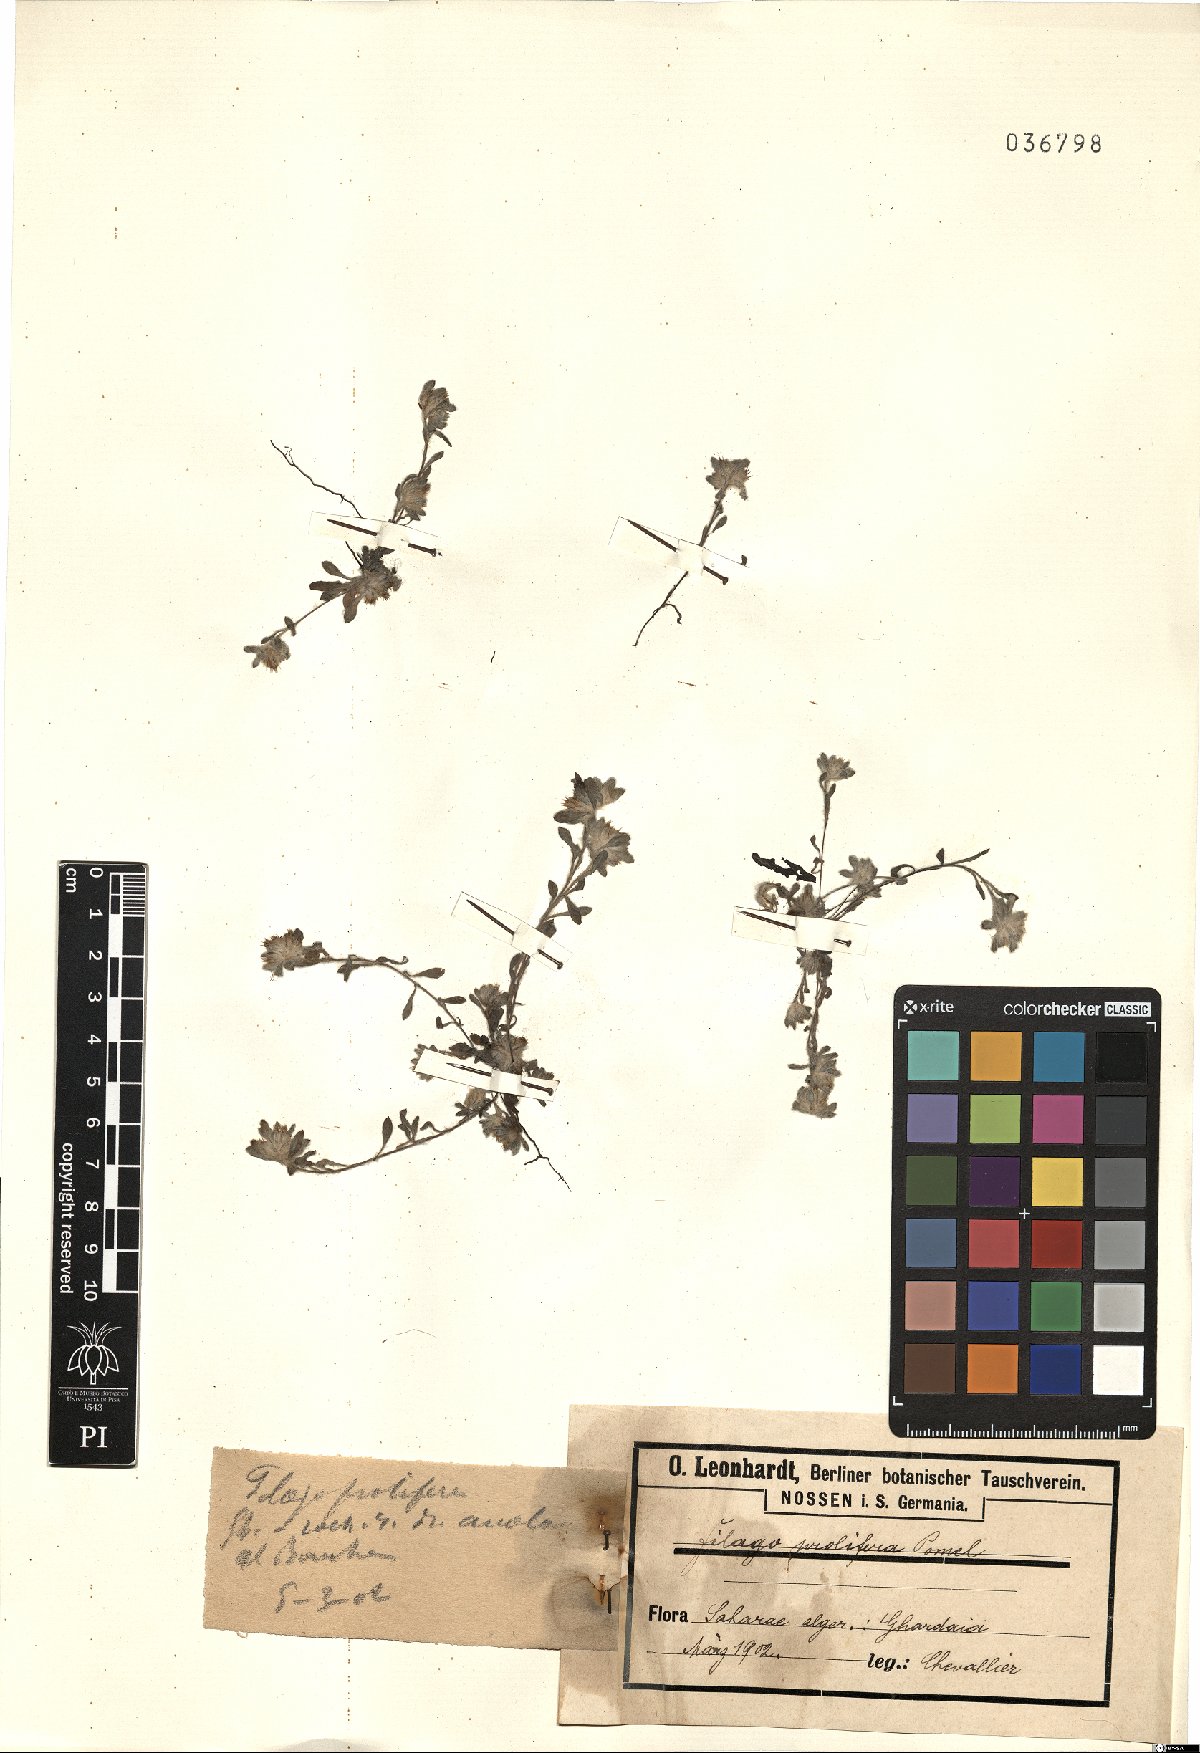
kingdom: Plantae
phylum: Tracheophyta
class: Magnoliopsida
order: Asterales
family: Asteraceae
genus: Filago
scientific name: Filago prolifera
